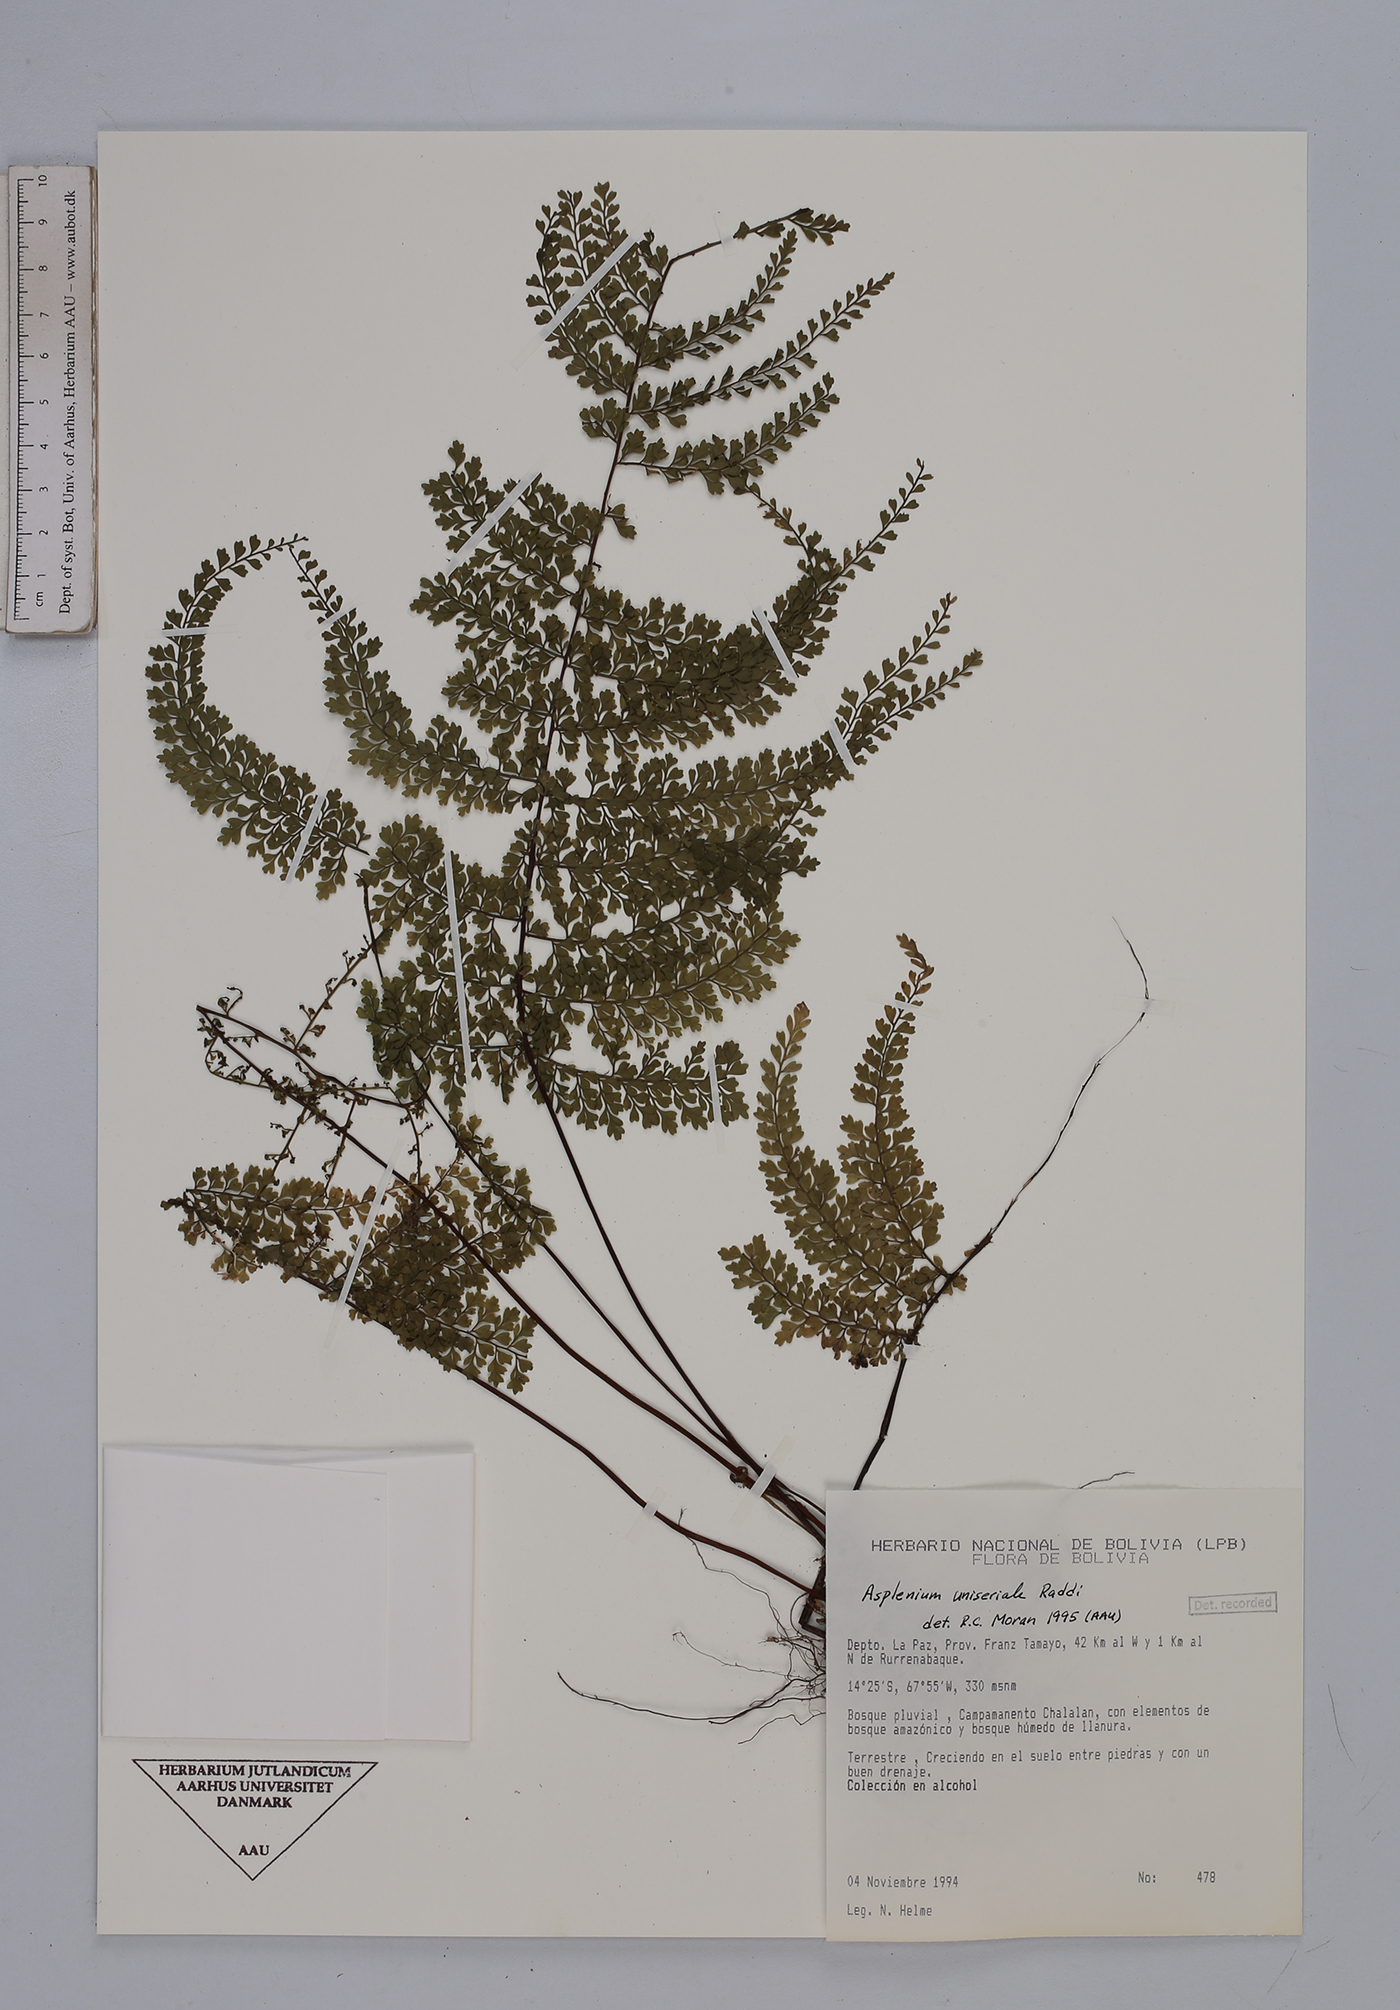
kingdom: Plantae
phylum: Tracheophyta
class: Polypodiopsida
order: Polypodiales
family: Aspleniaceae
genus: Asplenium
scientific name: Asplenium uniseriale
